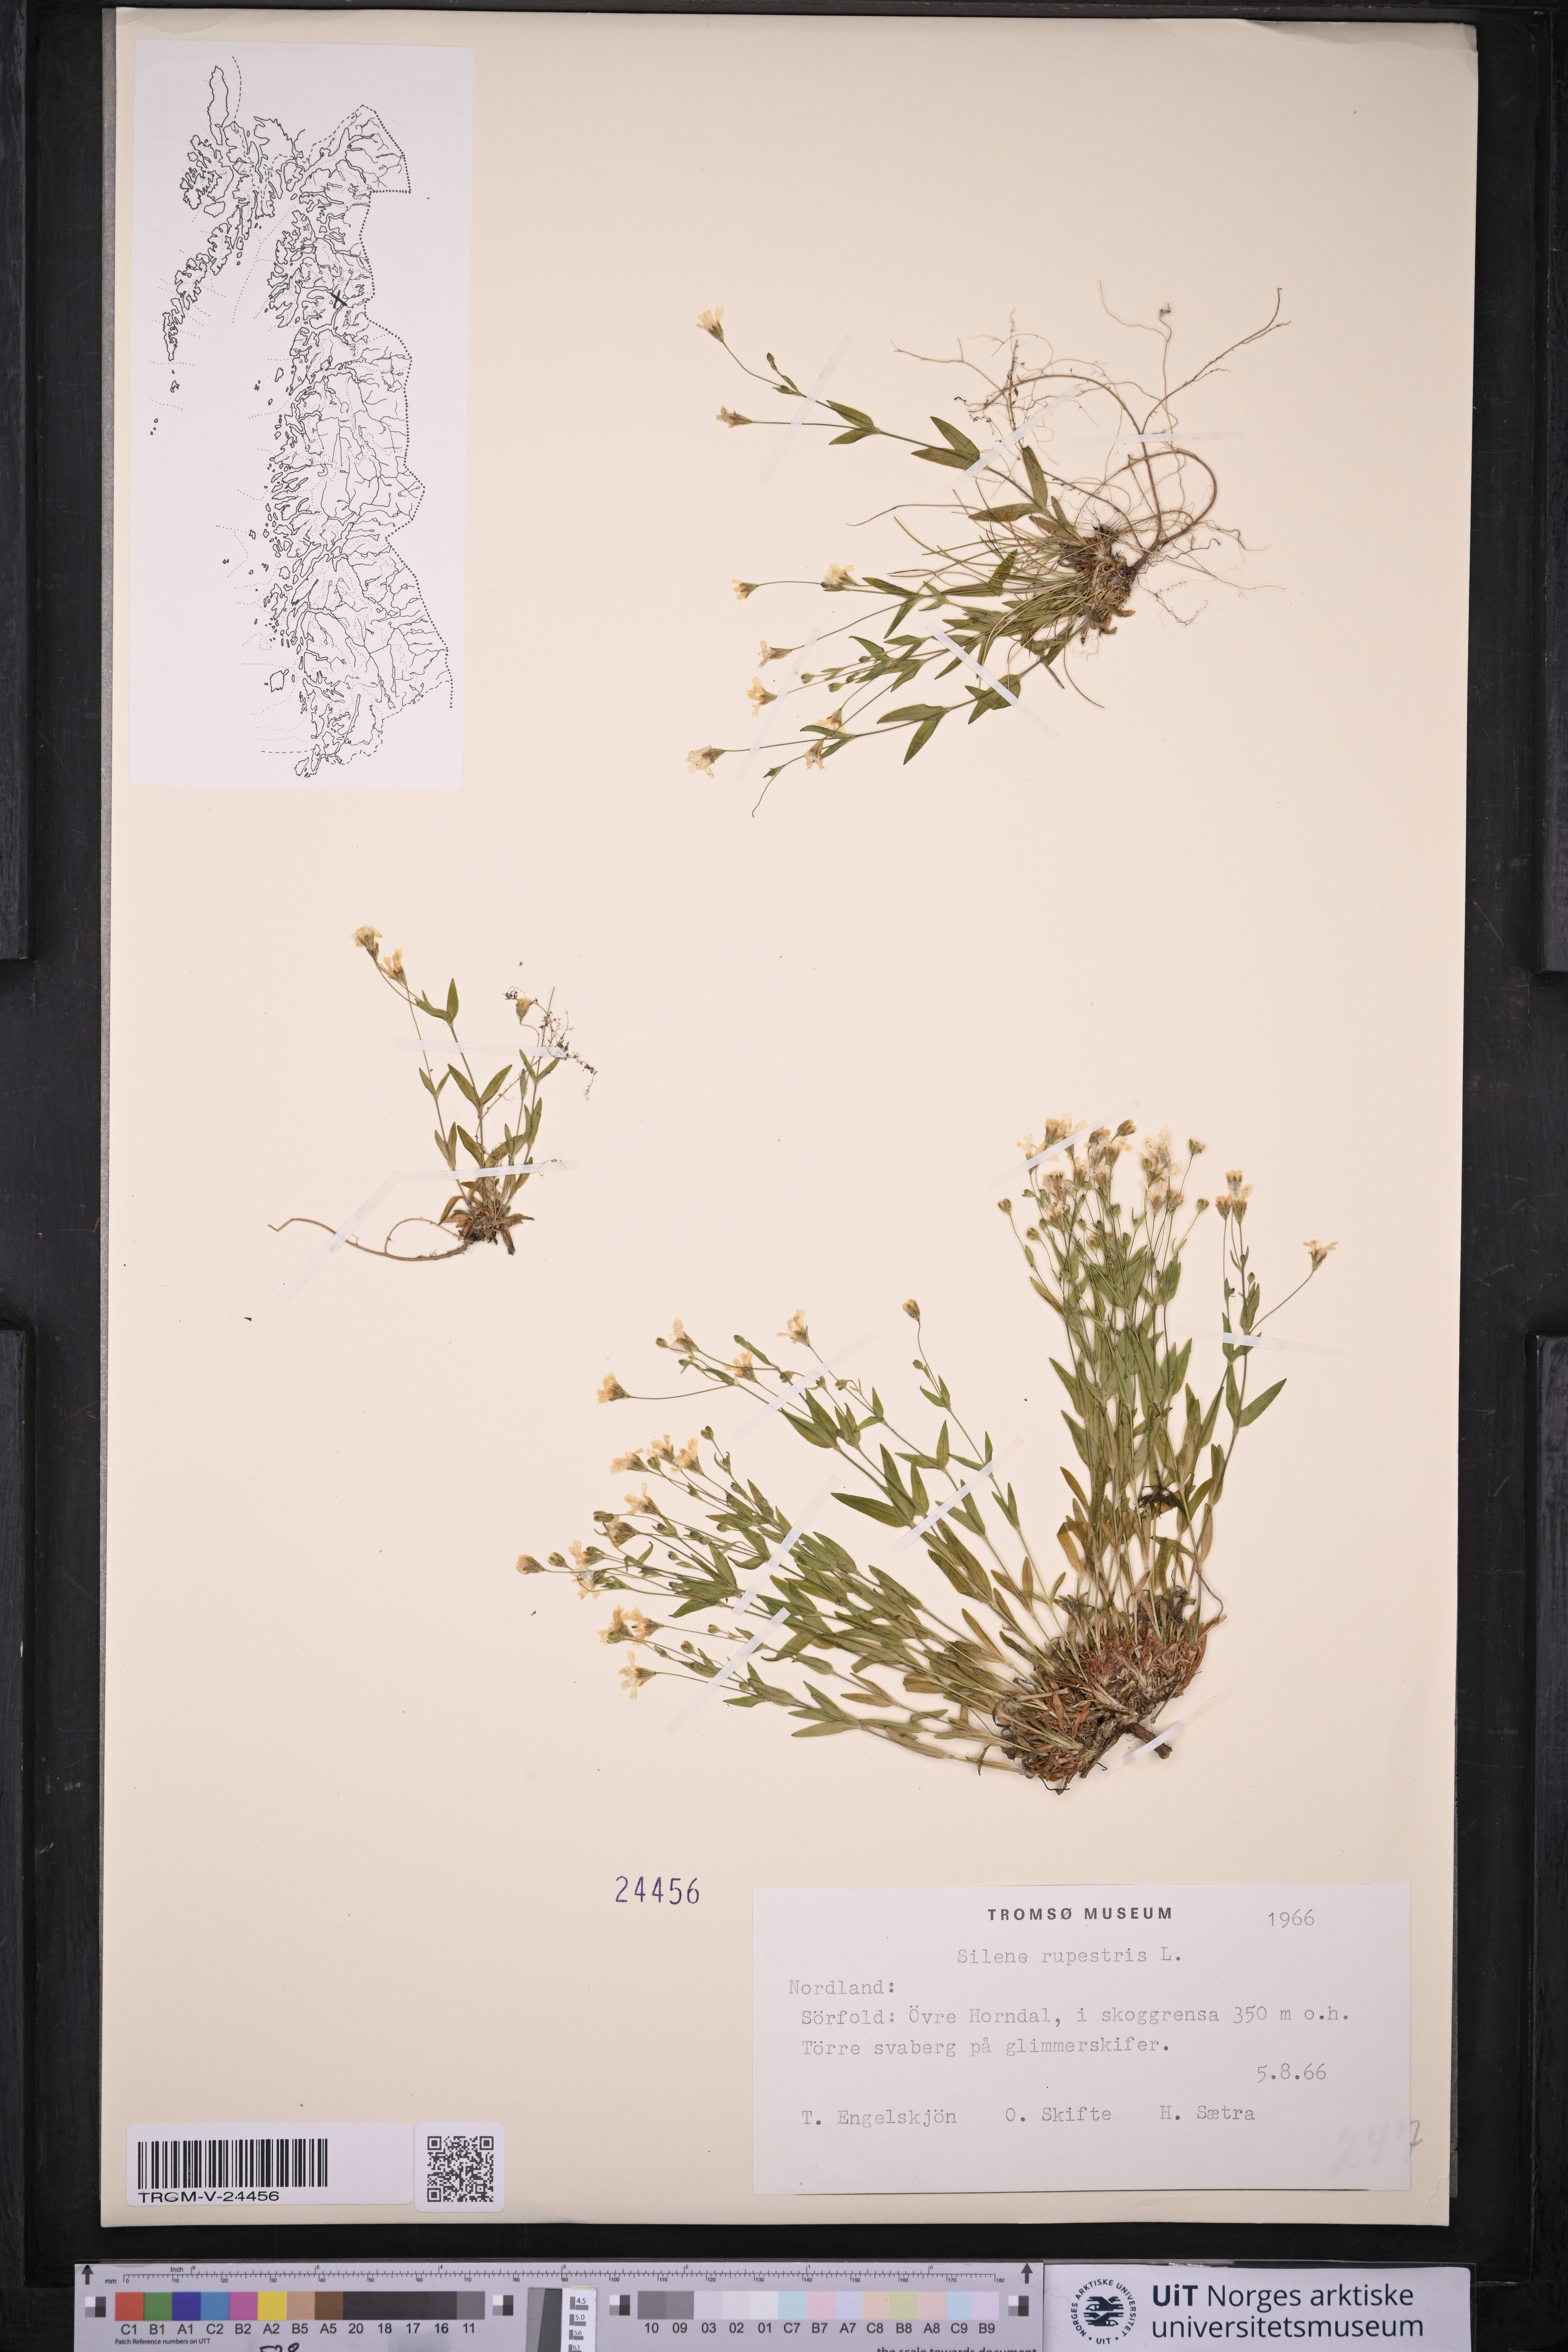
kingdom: Plantae
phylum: Tracheophyta
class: Magnoliopsida
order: Caryophyllales
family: Caryophyllaceae
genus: Atocion
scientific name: Atocion rupestre
